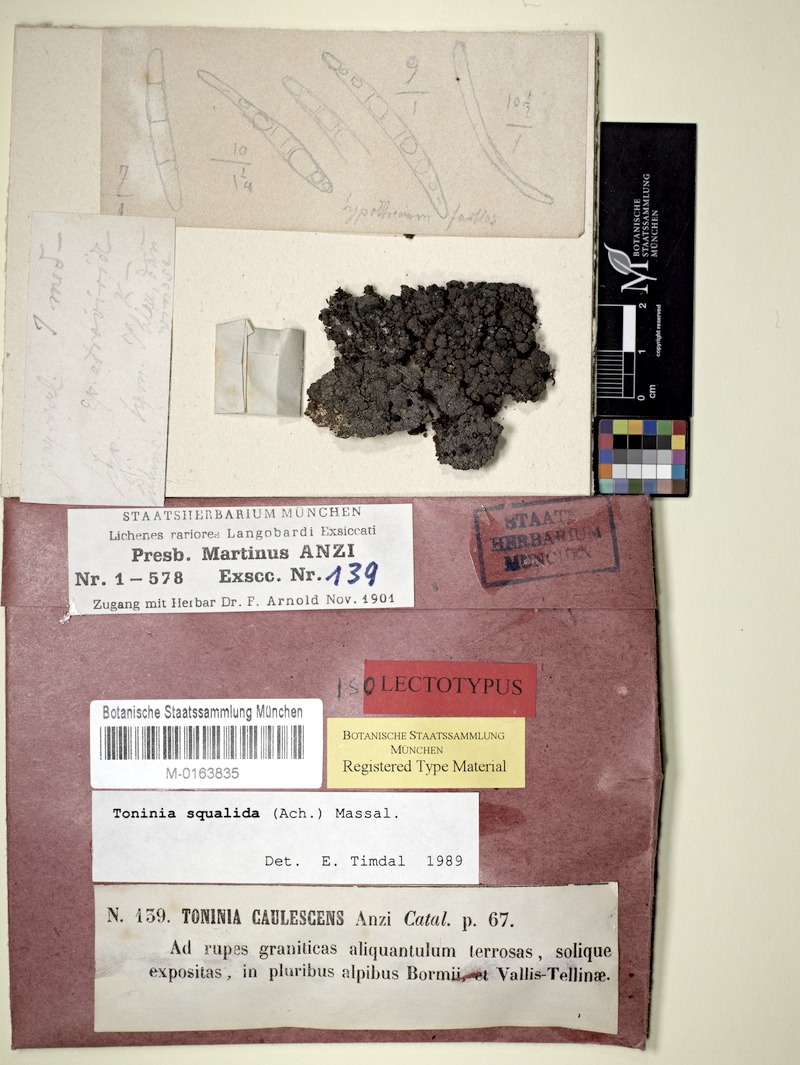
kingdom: Fungi
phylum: Ascomycota
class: Lecanoromycetes
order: Lecanorales
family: Ramalinaceae
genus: Toninia
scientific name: Toninia squalida
